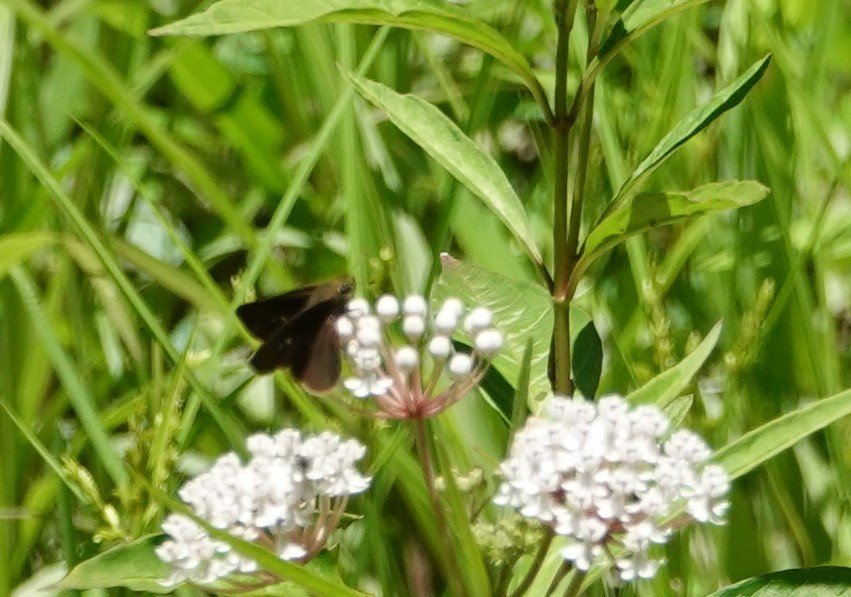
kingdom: Animalia
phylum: Arthropoda
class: Insecta
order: Lepidoptera
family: Hesperiidae
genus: Euphyes
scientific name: Euphyes vestris
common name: Dun Skipper
